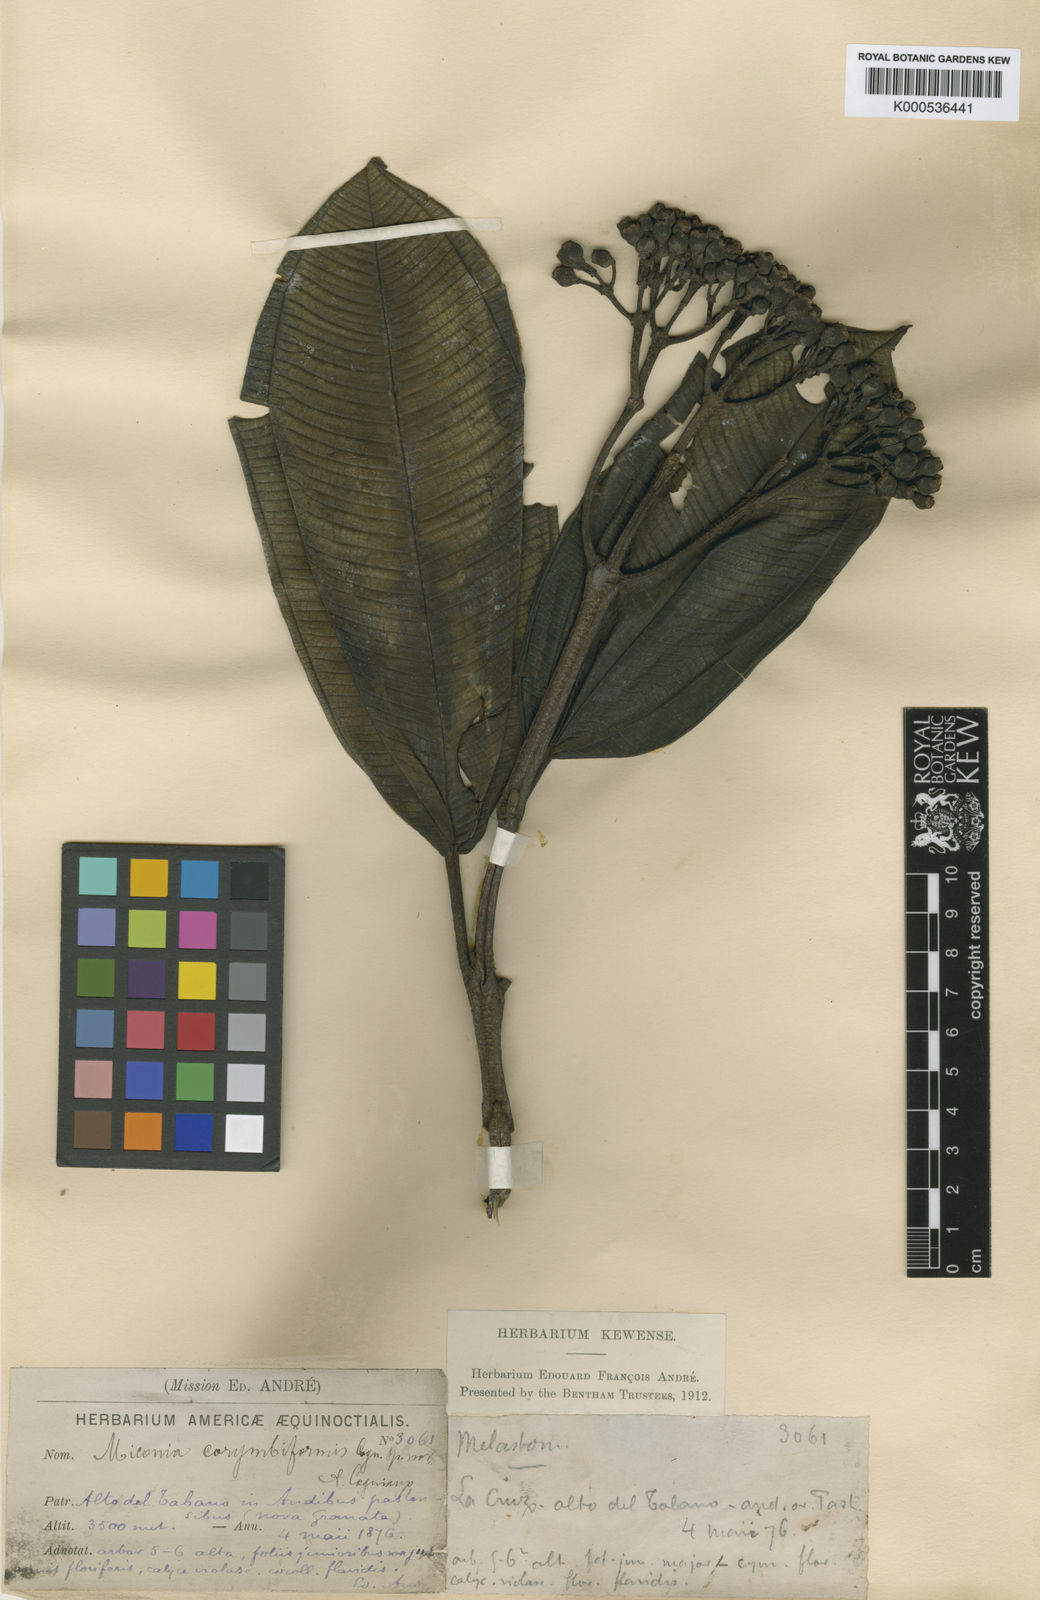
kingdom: Plantae
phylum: Tracheophyta
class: Magnoliopsida
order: Myrtales
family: Melastomataceae
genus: Miconia
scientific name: Miconia corymbiformis
